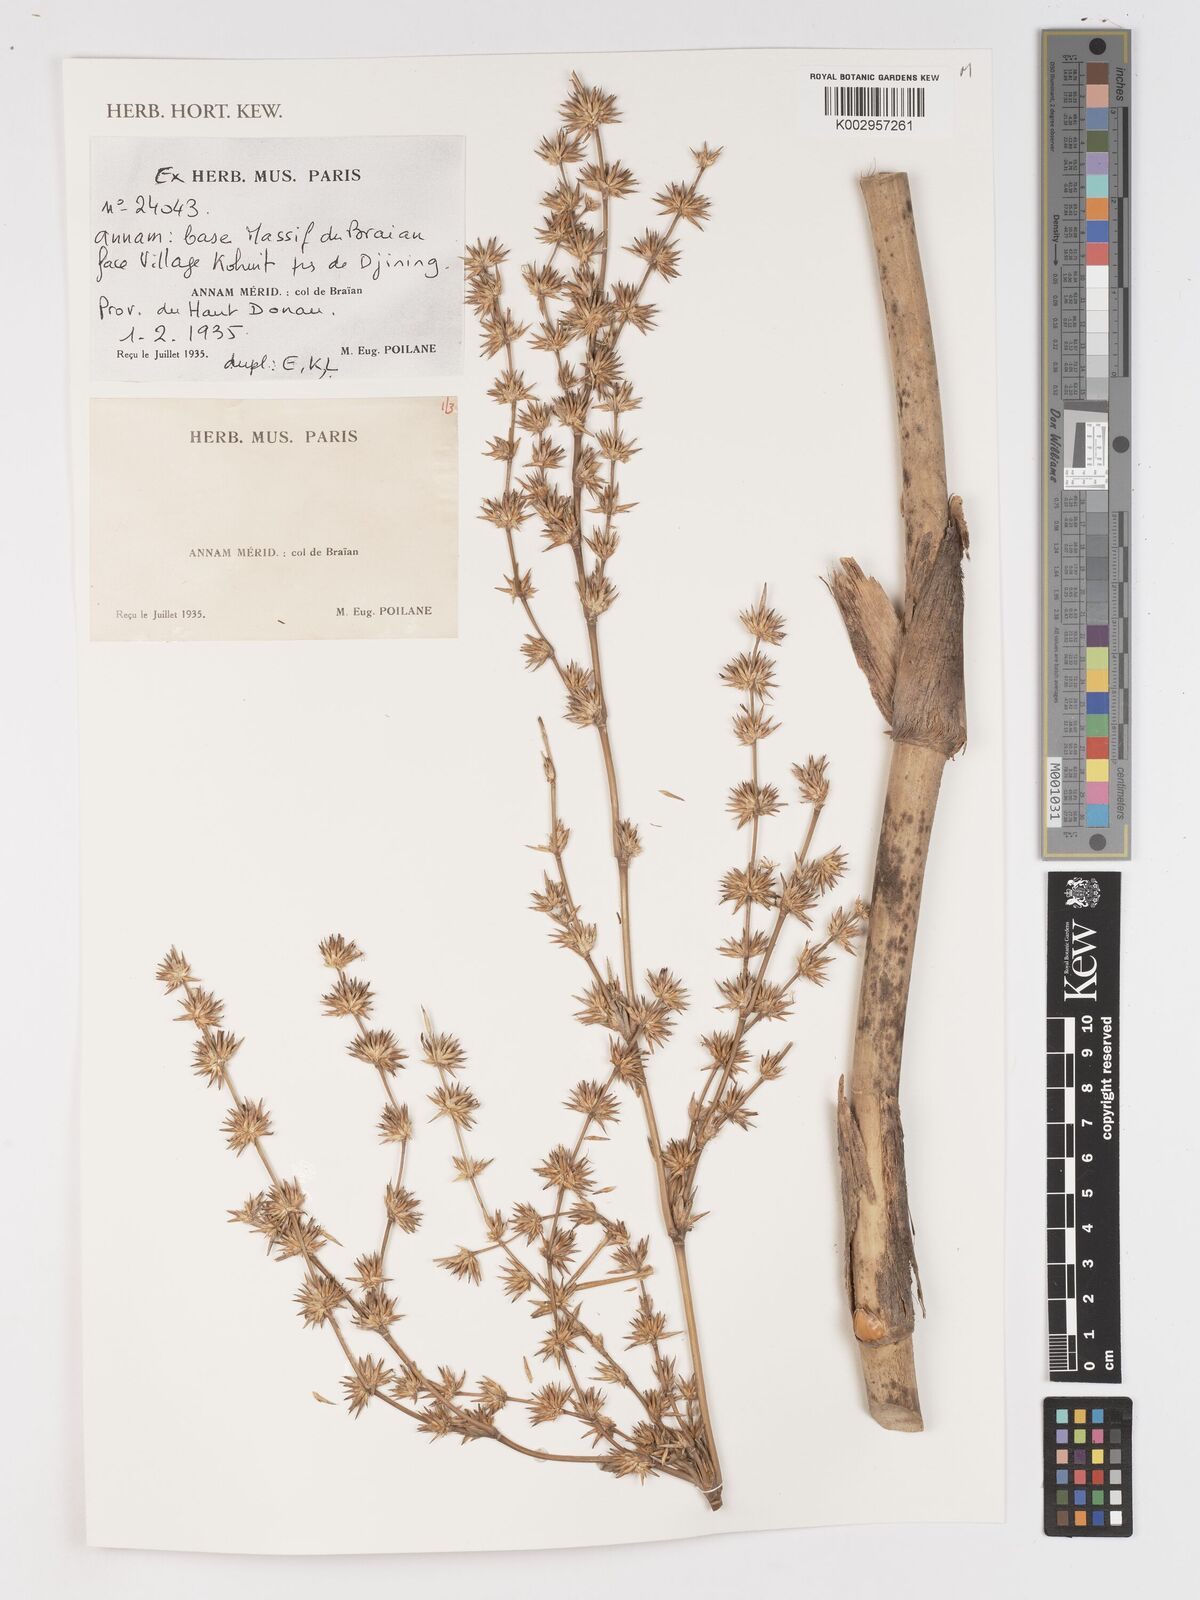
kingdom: Plantae
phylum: Tracheophyta
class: Liliopsida
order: Poales
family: Poaceae
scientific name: Poaceae
